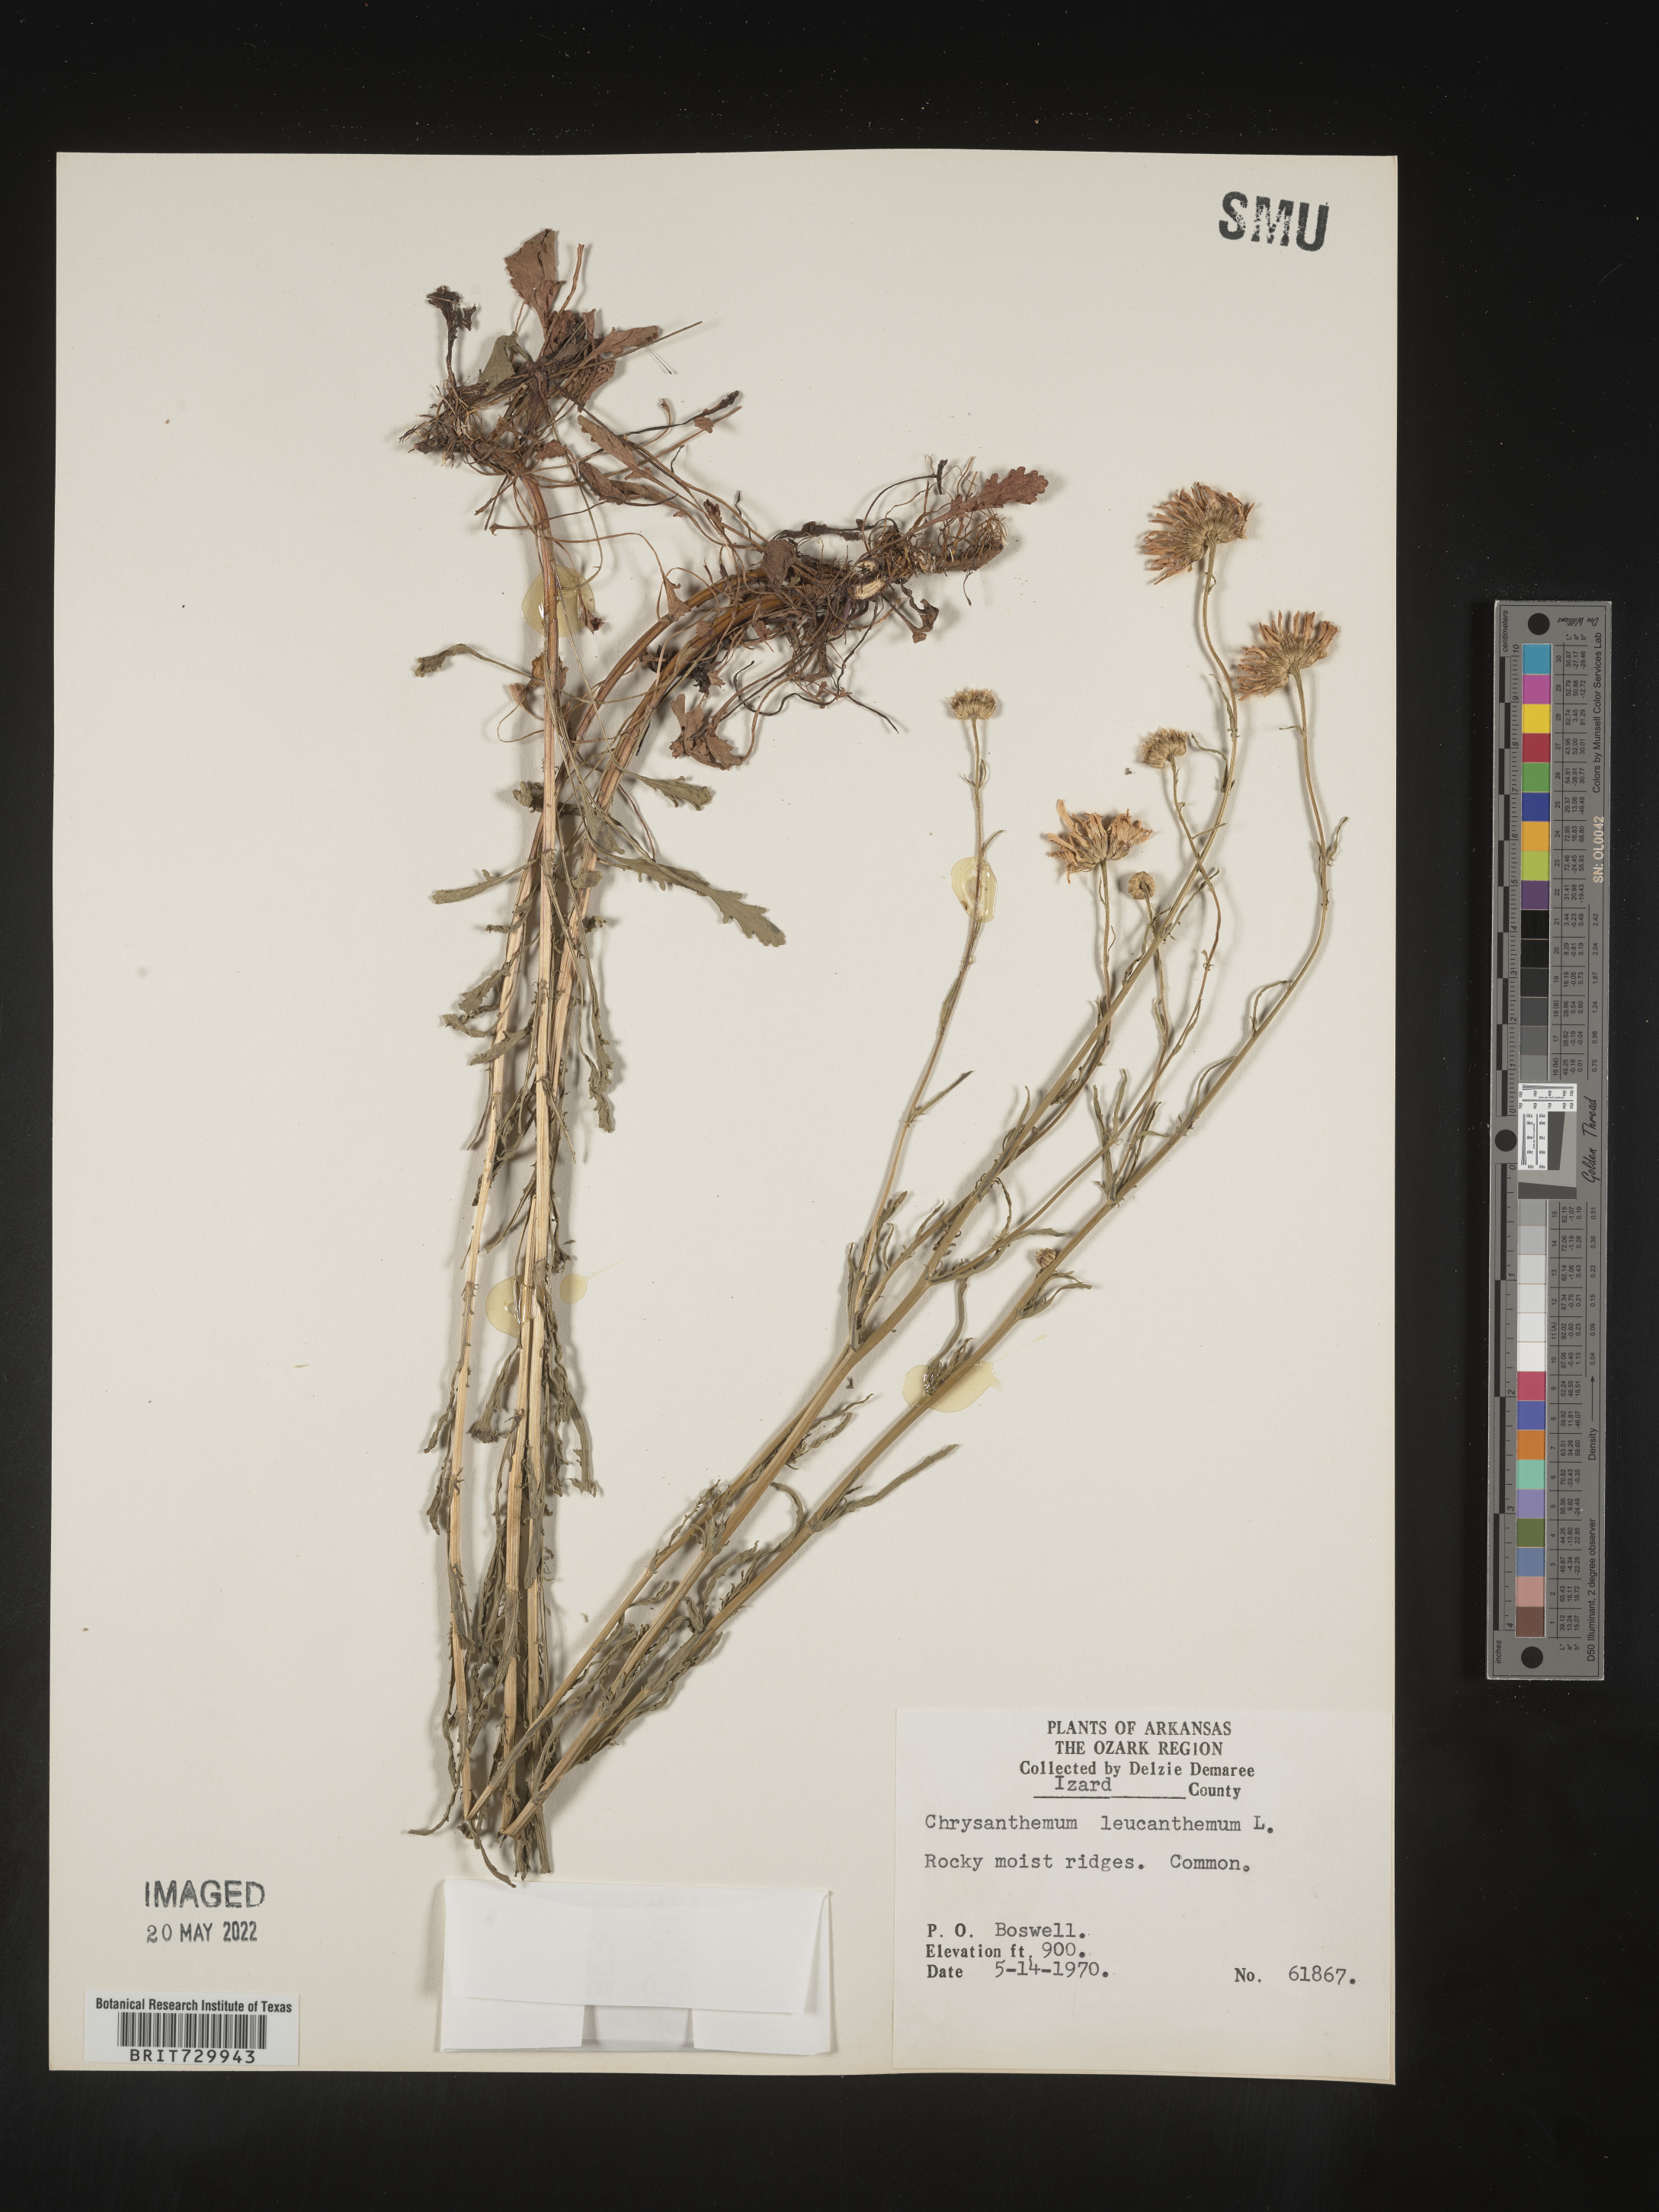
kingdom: Plantae
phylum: Tracheophyta
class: Magnoliopsida
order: Asterales
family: Asteraceae
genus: Leucanthemum
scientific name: Leucanthemum vulgare
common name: Oxeye daisy
